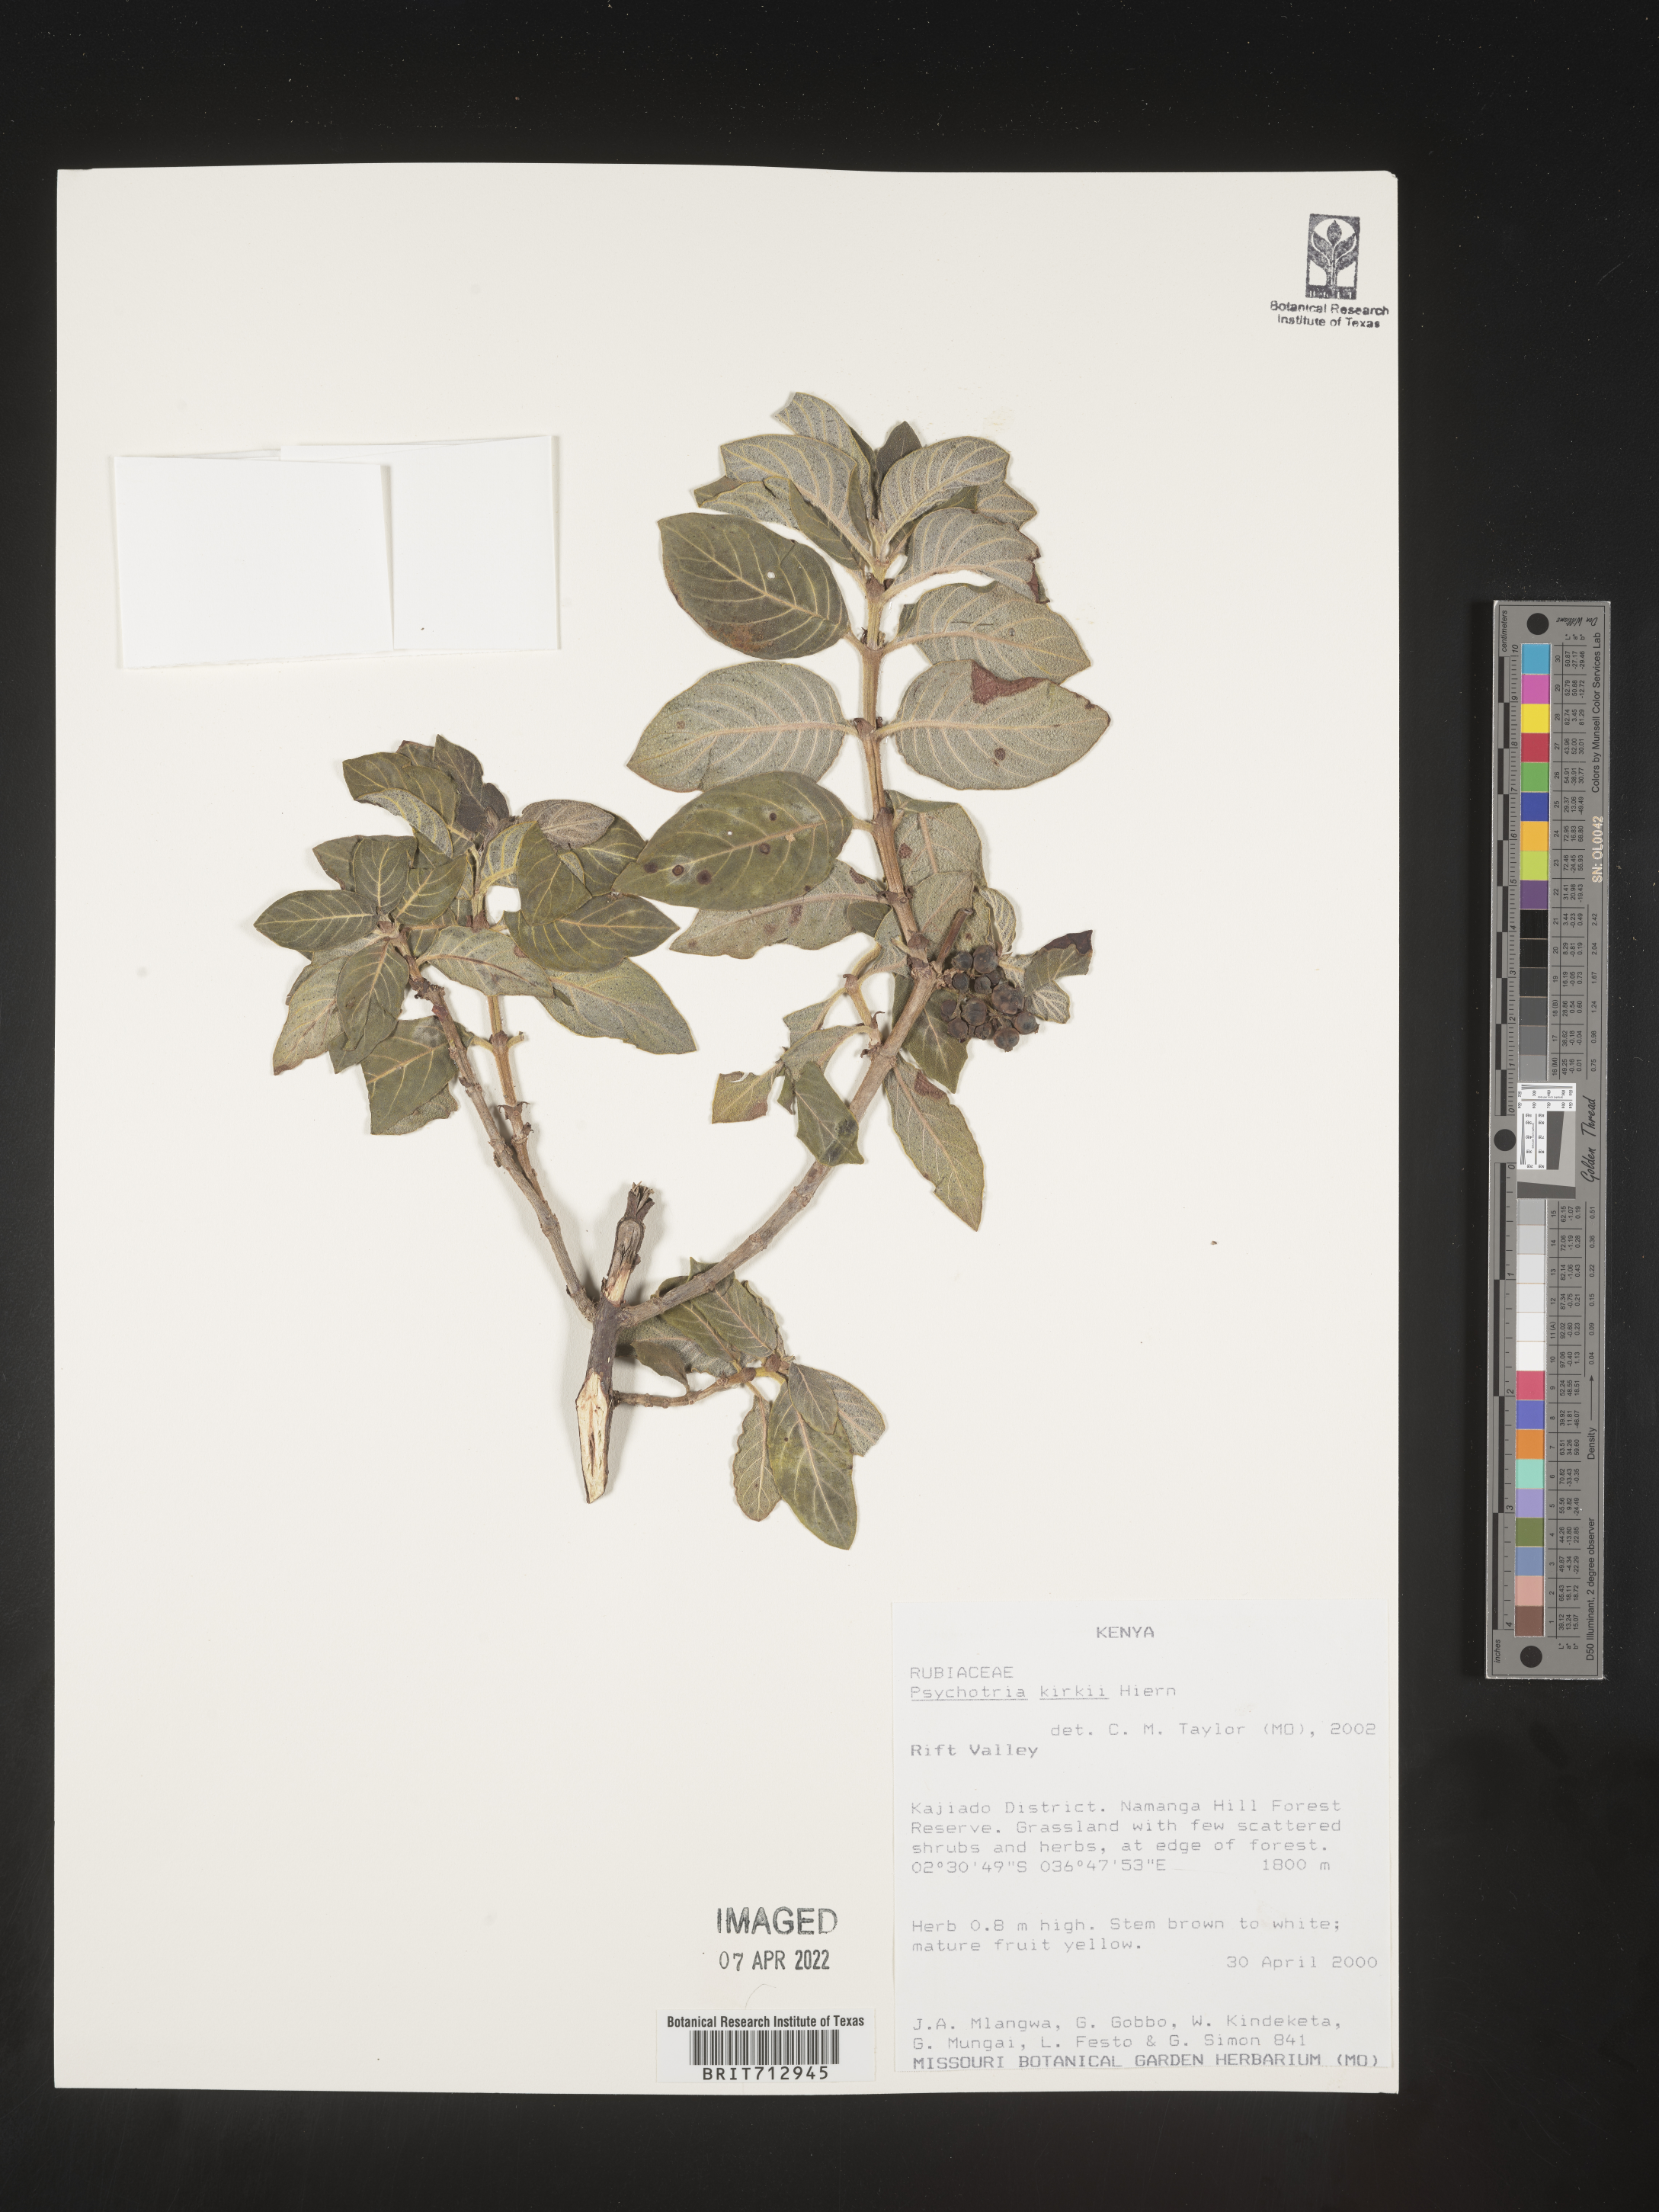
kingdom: Plantae
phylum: Tracheophyta
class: Magnoliopsida
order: Gentianales
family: Rubiaceae
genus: Psychotria
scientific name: Psychotria punctata
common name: Dotted wild coffee
